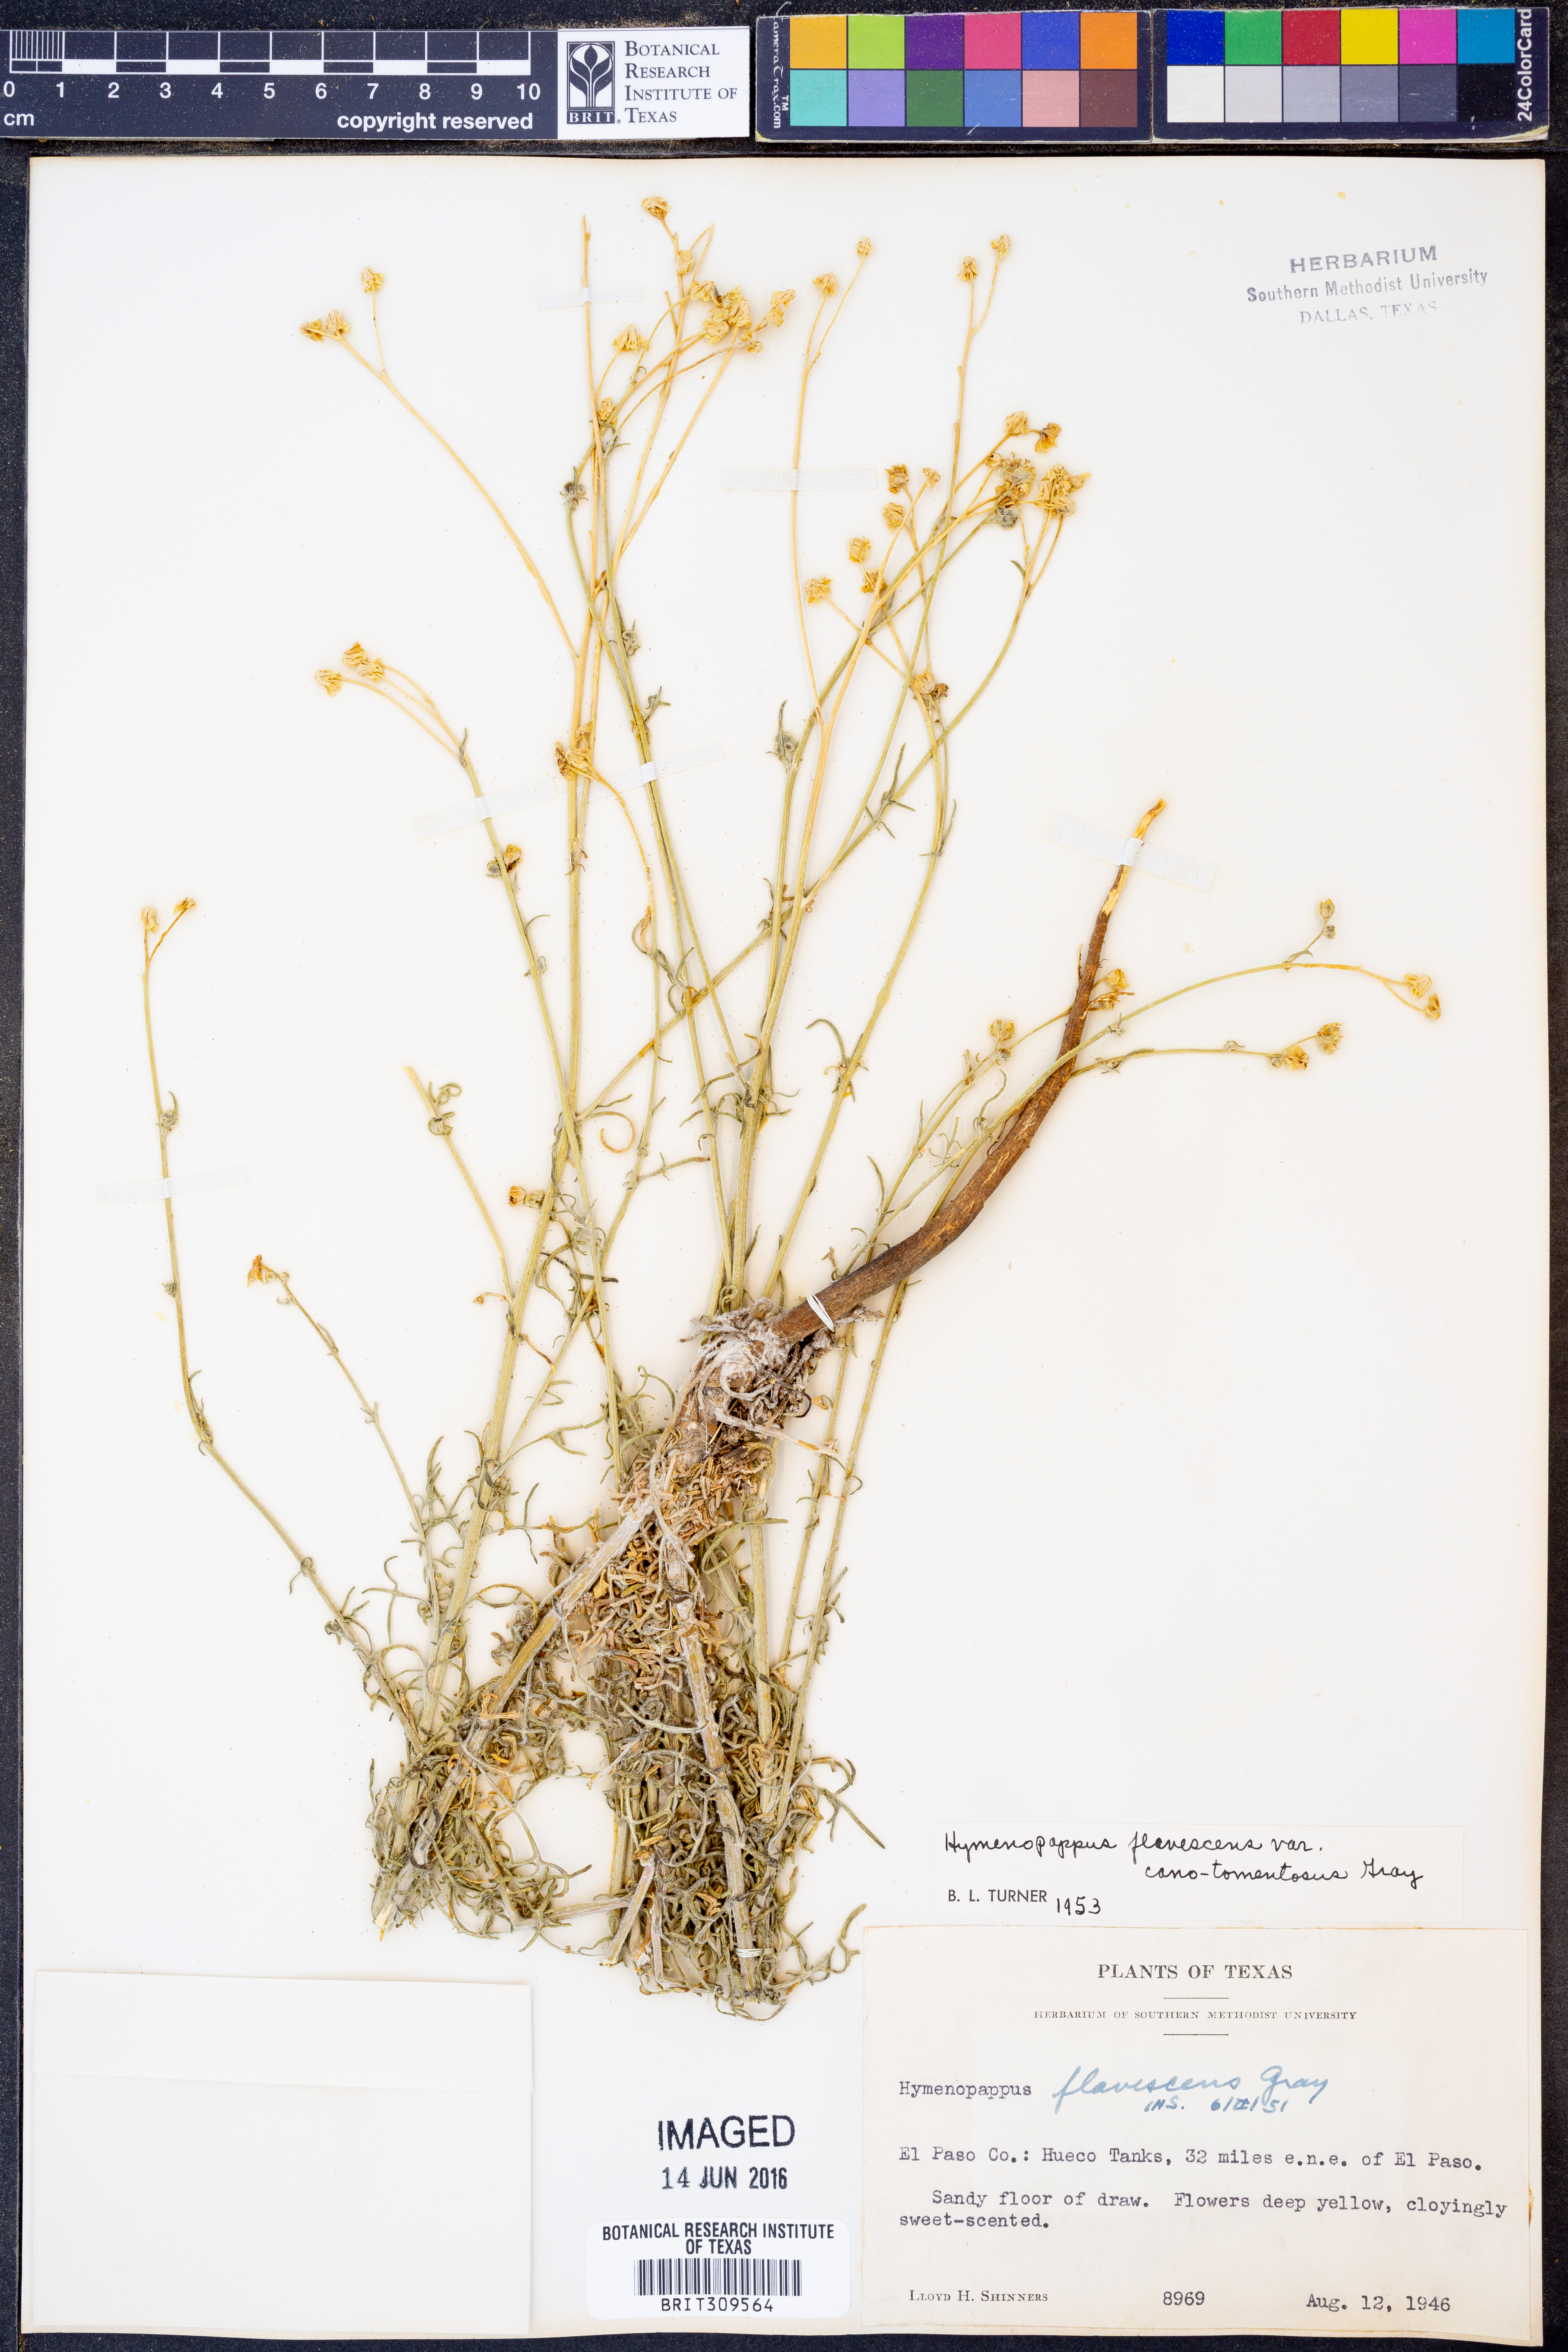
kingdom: Plantae
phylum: Tracheophyta
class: Magnoliopsida
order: Asterales
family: Asteraceae
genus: Hymenopappus
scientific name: Hymenopappus flavescens
